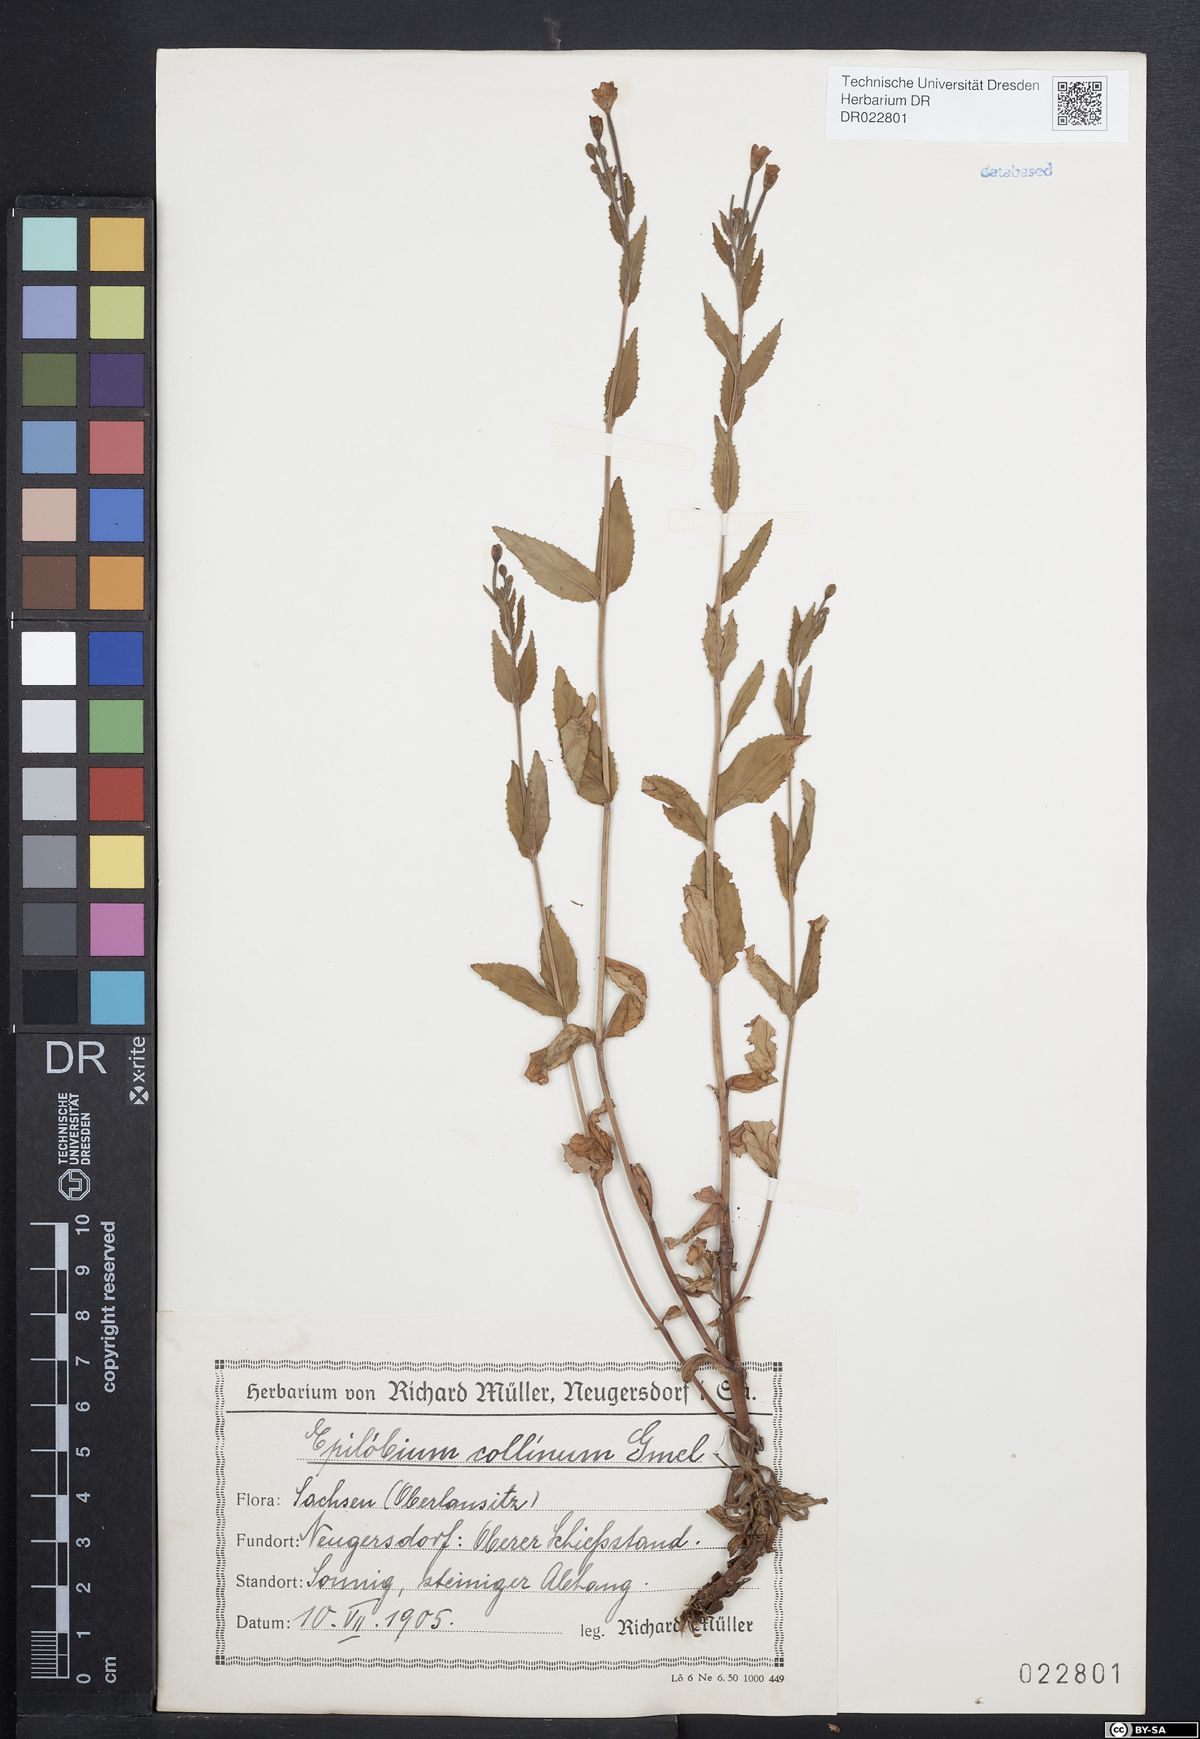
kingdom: Plantae
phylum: Tracheophyta
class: Magnoliopsida
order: Myrtales
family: Onagraceae
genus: Epilobium
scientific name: Epilobium collinum
